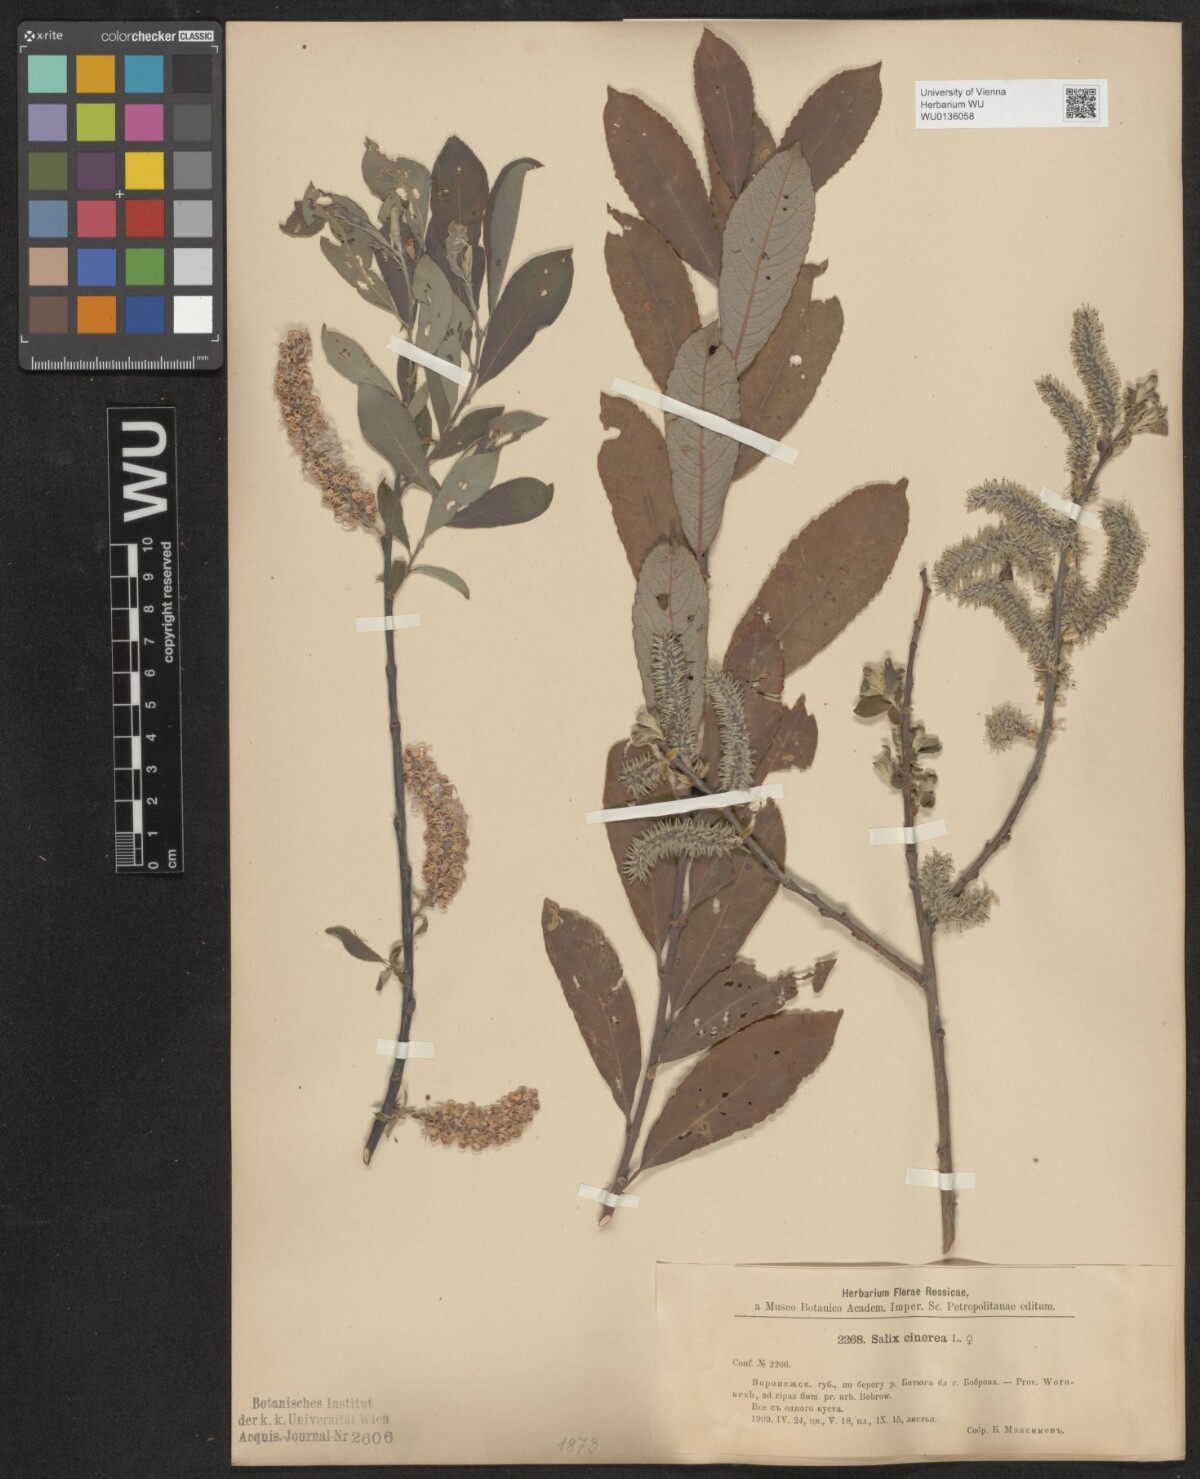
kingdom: Plantae
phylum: Tracheophyta
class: Magnoliopsida
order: Malpighiales
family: Salicaceae
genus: Salix
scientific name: Salix cinerea
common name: Common sallow
